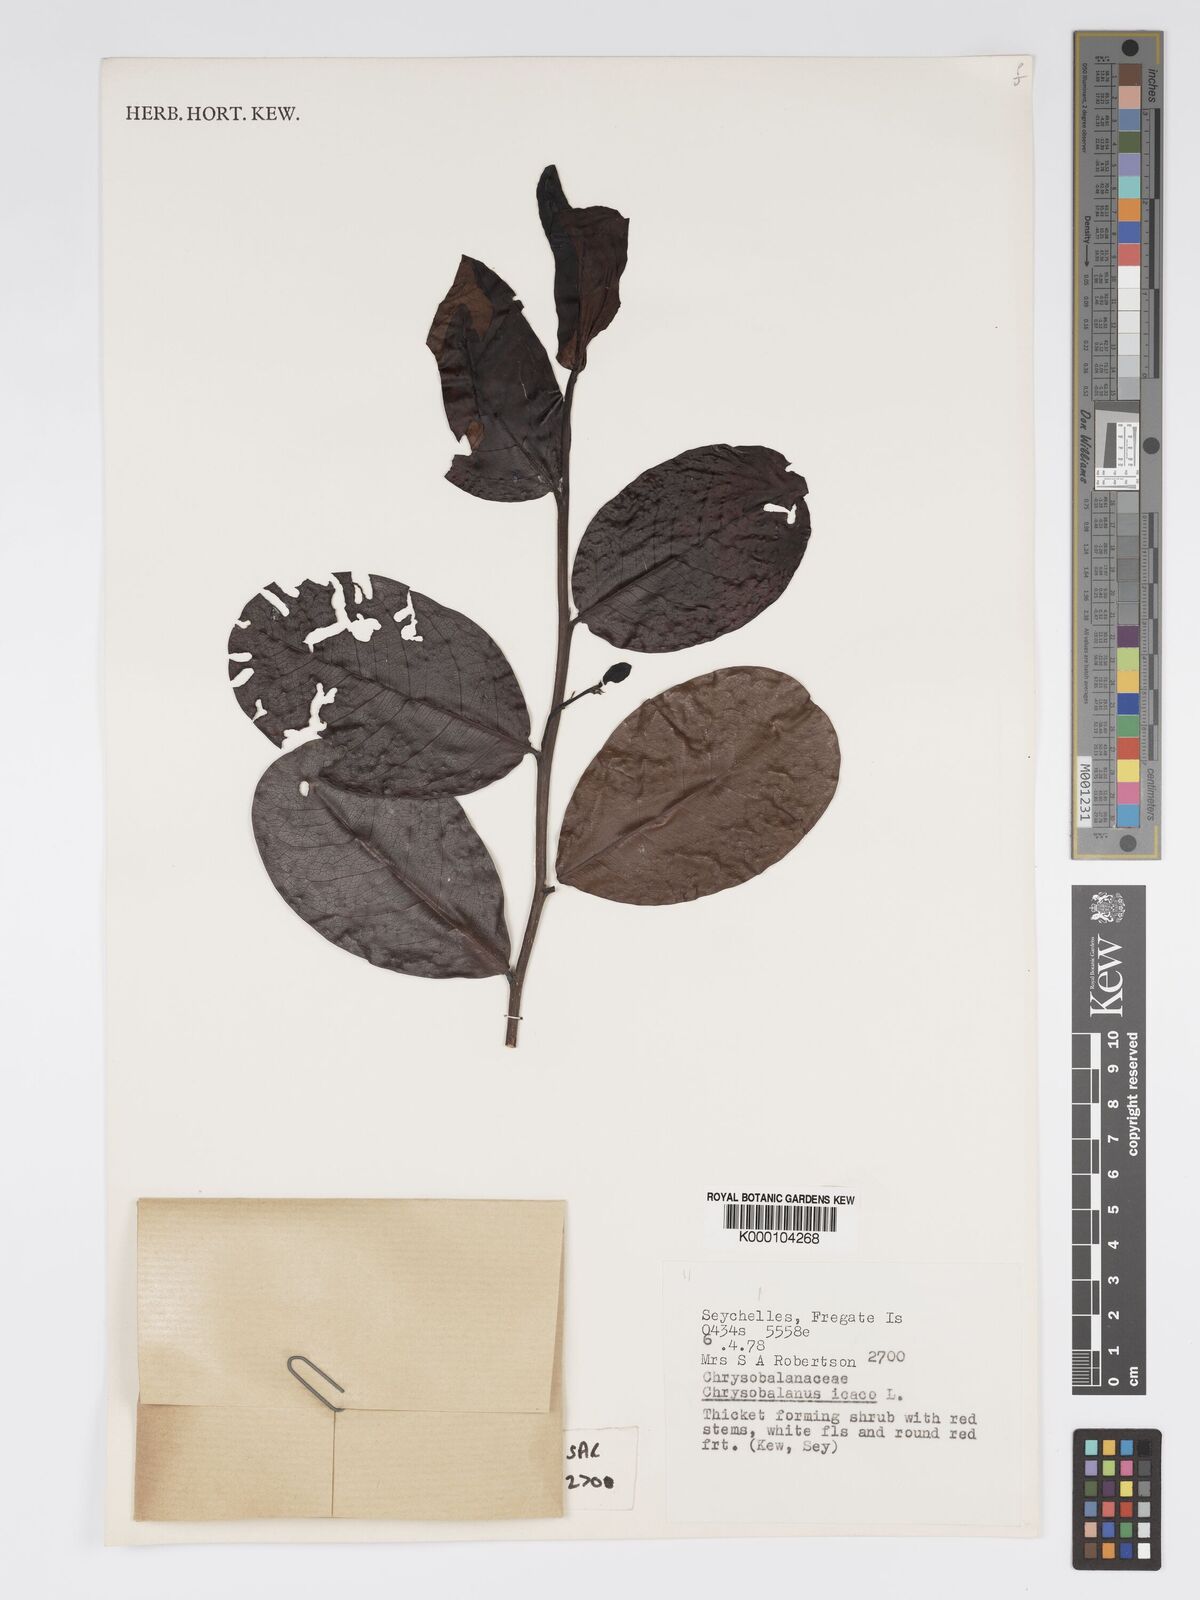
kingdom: Plantae
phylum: Tracheophyta
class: Magnoliopsida
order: Malpighiales
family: Chrysobalanaceae
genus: Chrysobalanus
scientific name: Chrysobalanus icaco
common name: Coco plum
